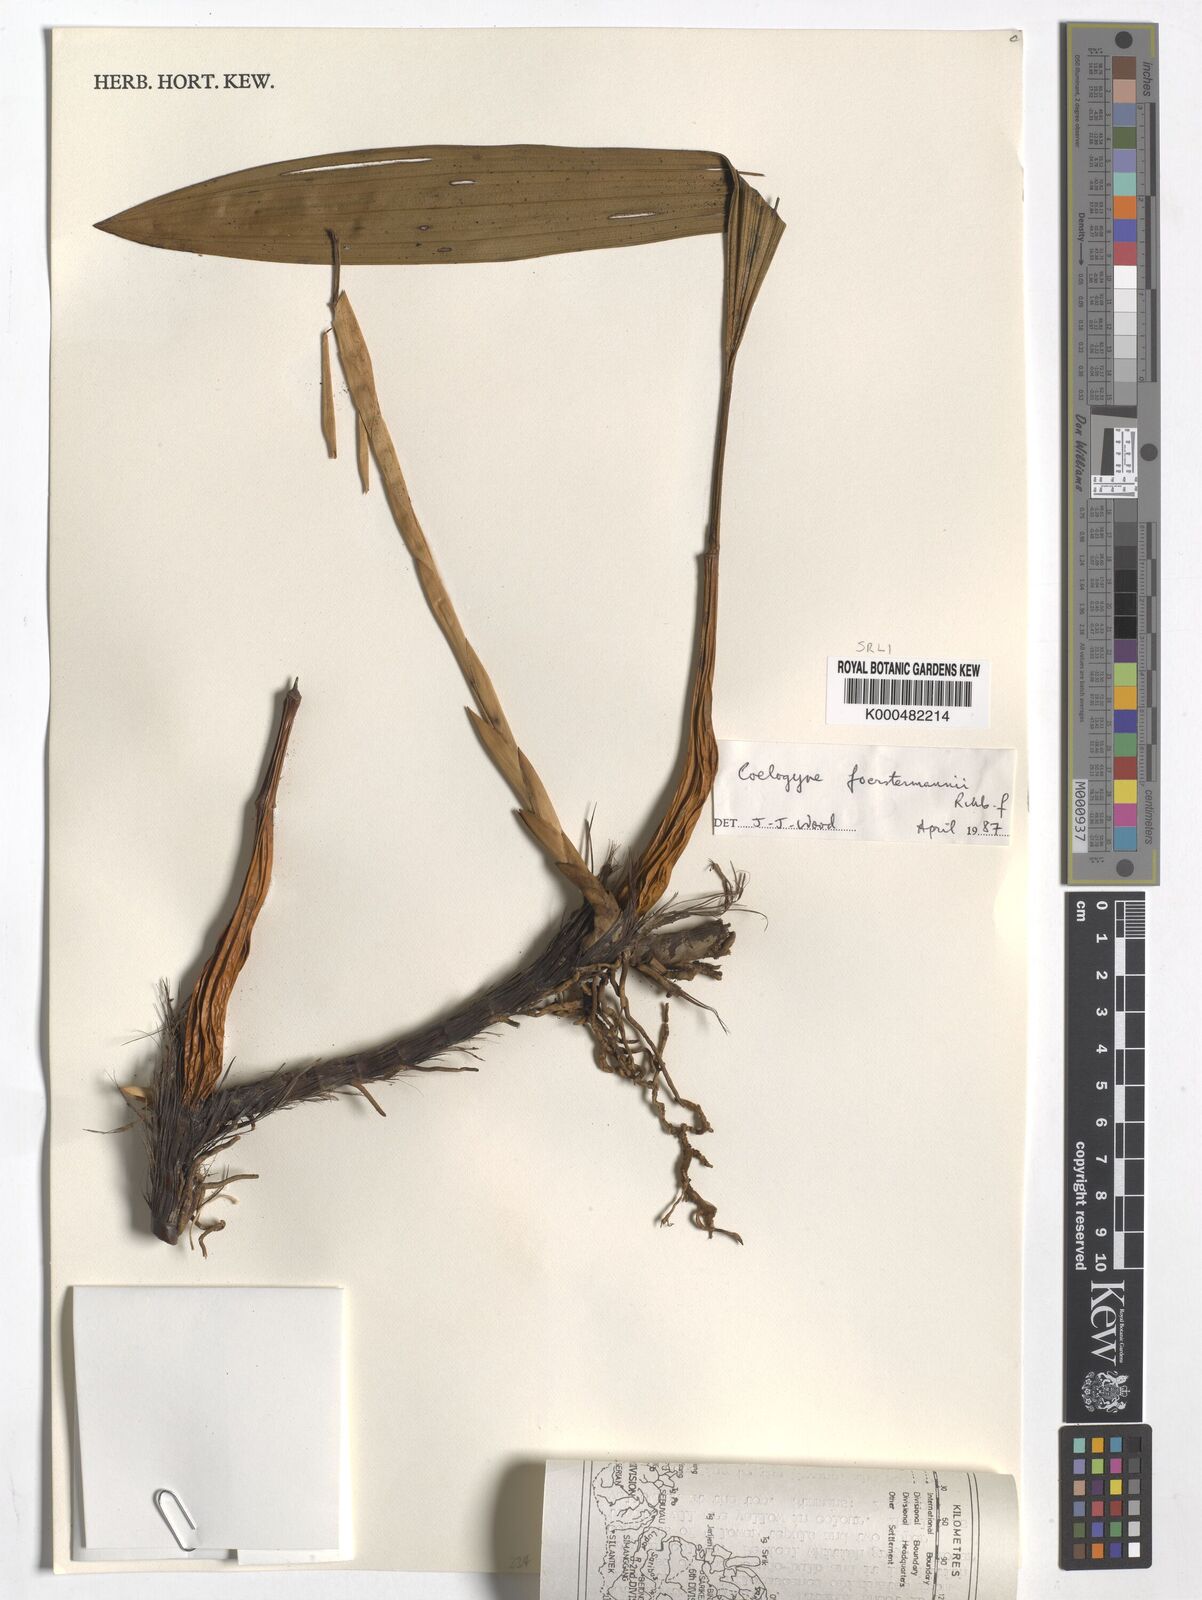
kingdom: Plantae
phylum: Tracheophyta
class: Liliopsida
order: Asparagales
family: Orchidaceae
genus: Coelogyne
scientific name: Coelogyne
